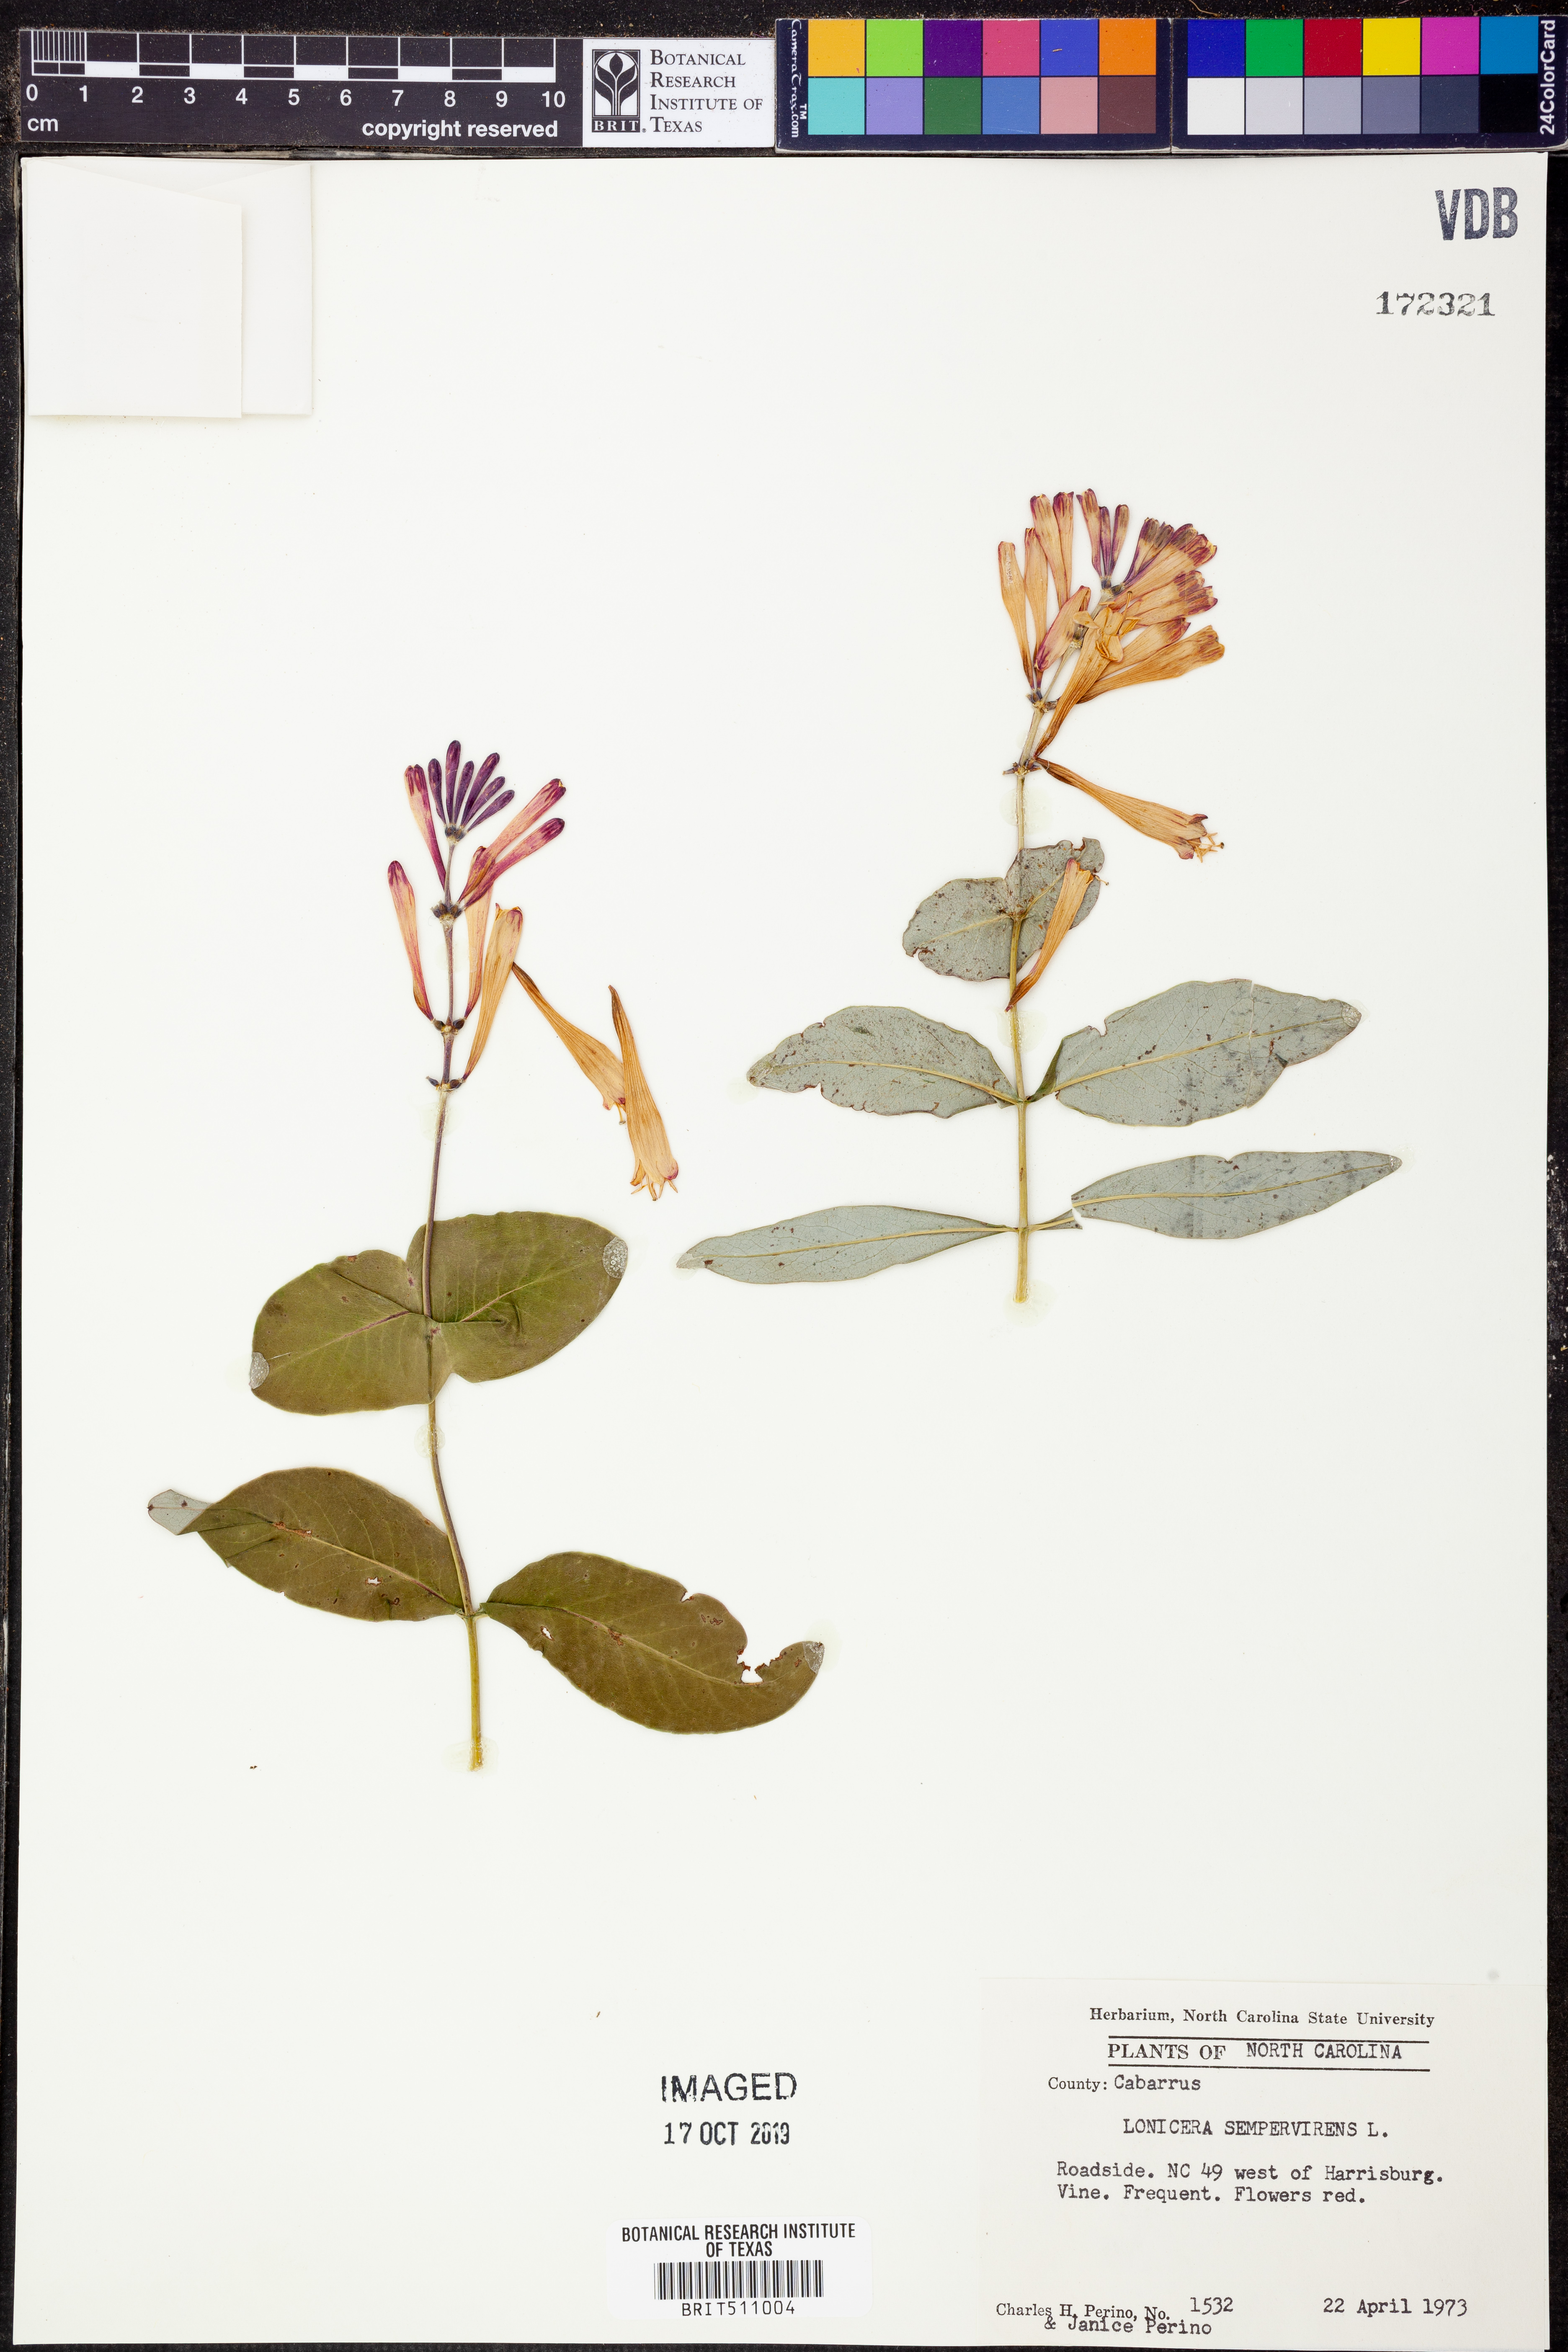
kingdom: Plantae
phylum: Tracheophyta
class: Magnoliopsida
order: Dipsacales
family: Caprifoliaceae
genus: Lonicera
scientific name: Lonicera sempervirens
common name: Coral honeysuckle
